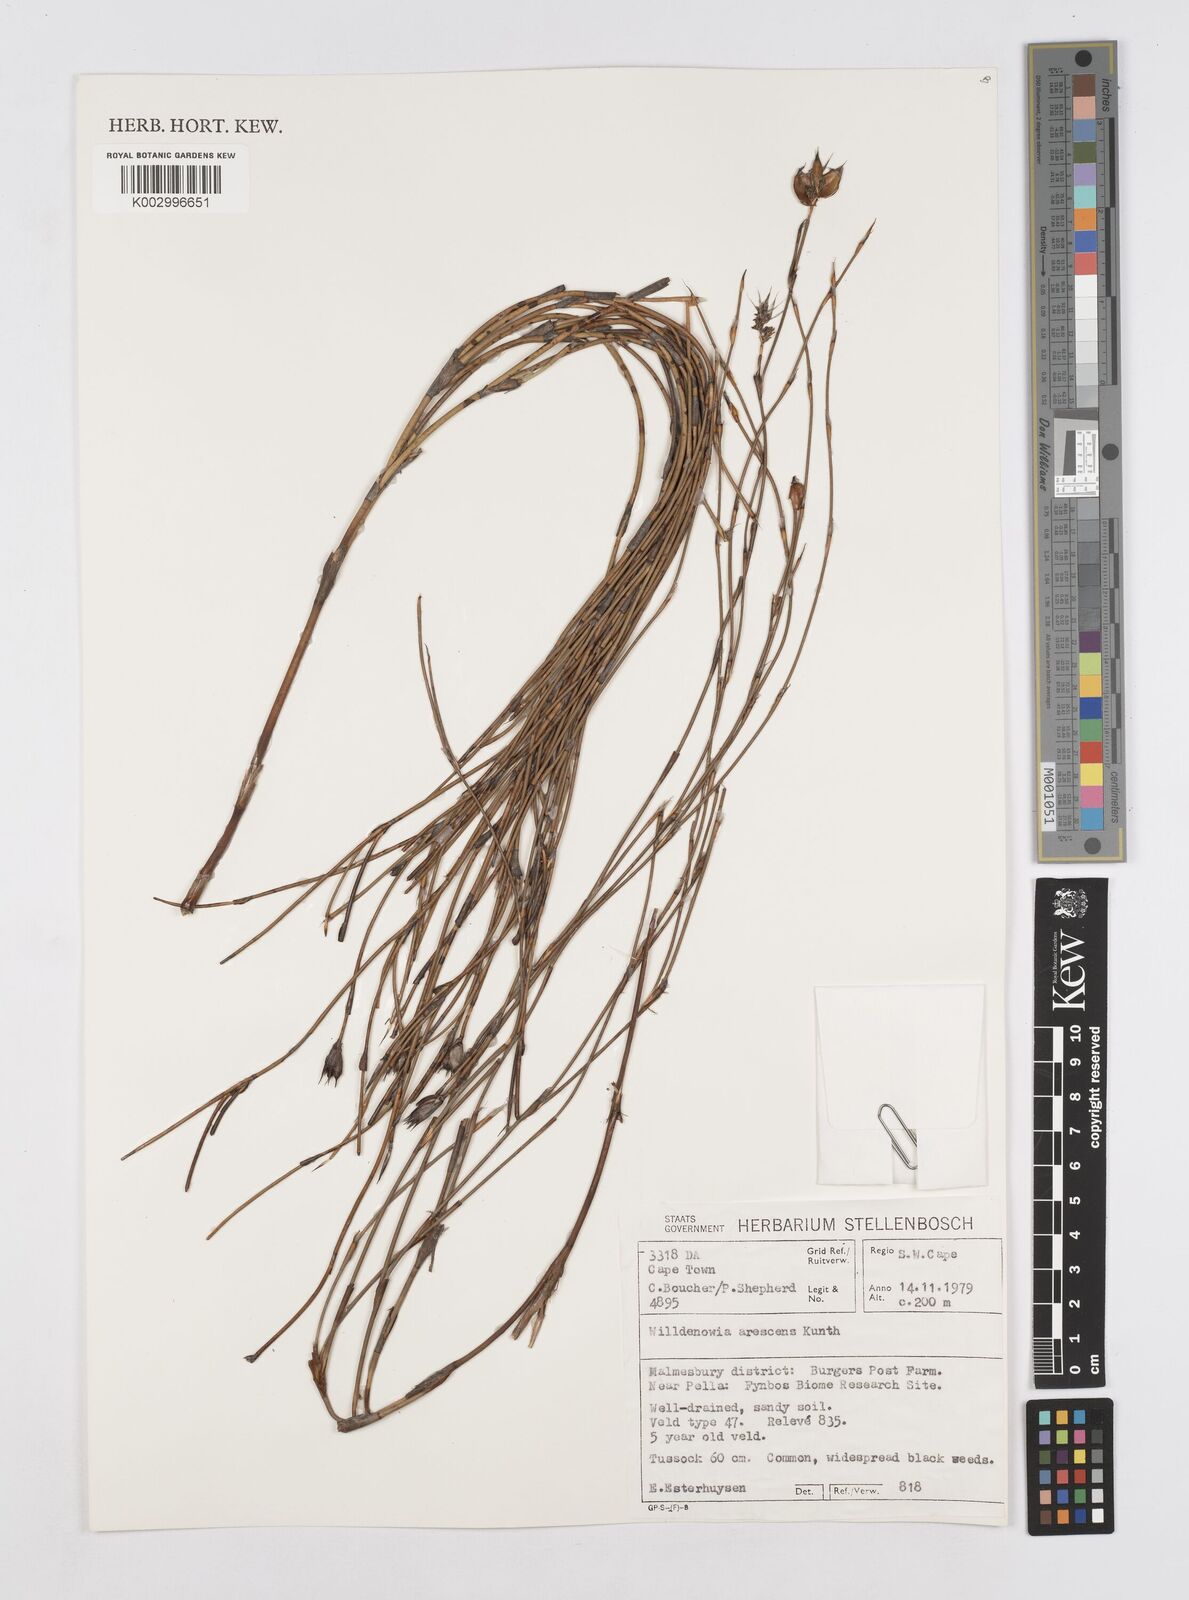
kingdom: Plantae
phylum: Tracheophyta
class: Liliopsida
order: Poales
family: Restionaceae
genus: Willdenowia
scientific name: Willdenowia arescens
